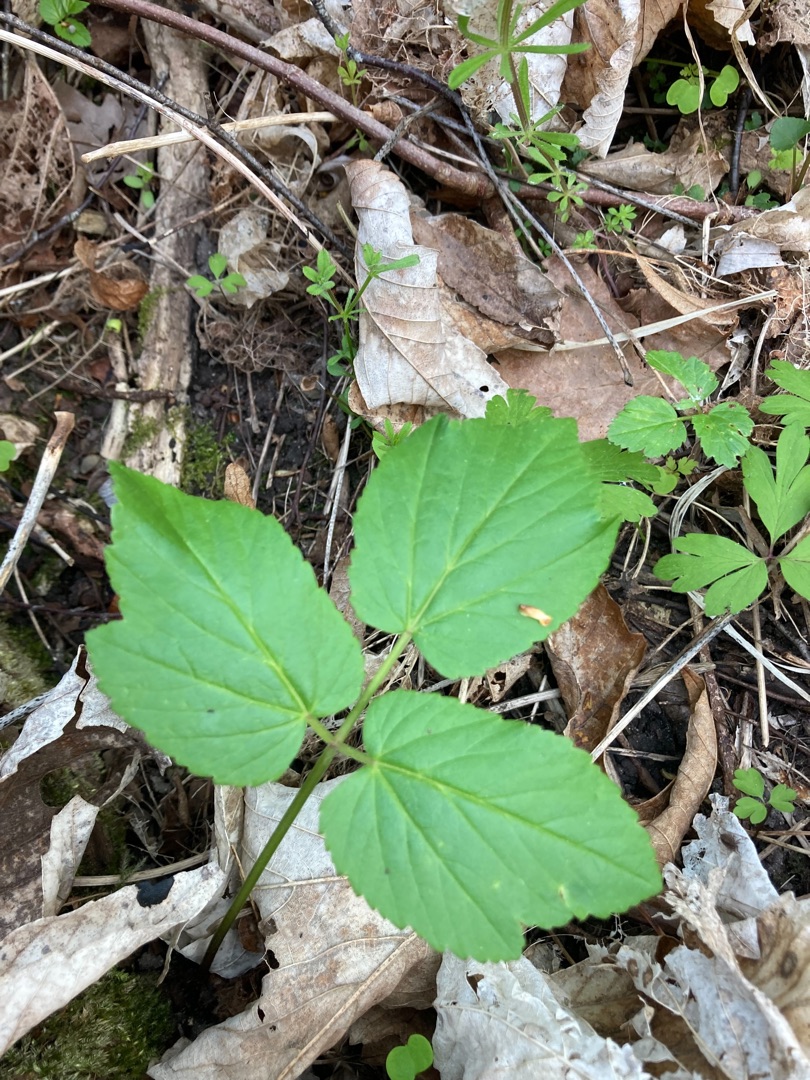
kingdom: Plantae
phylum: Tracheophyta
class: Magnoliopsida
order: Apiales
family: Apiaceae
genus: Aegopodium
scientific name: Aegopodium podagraria
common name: Skvalderkål
